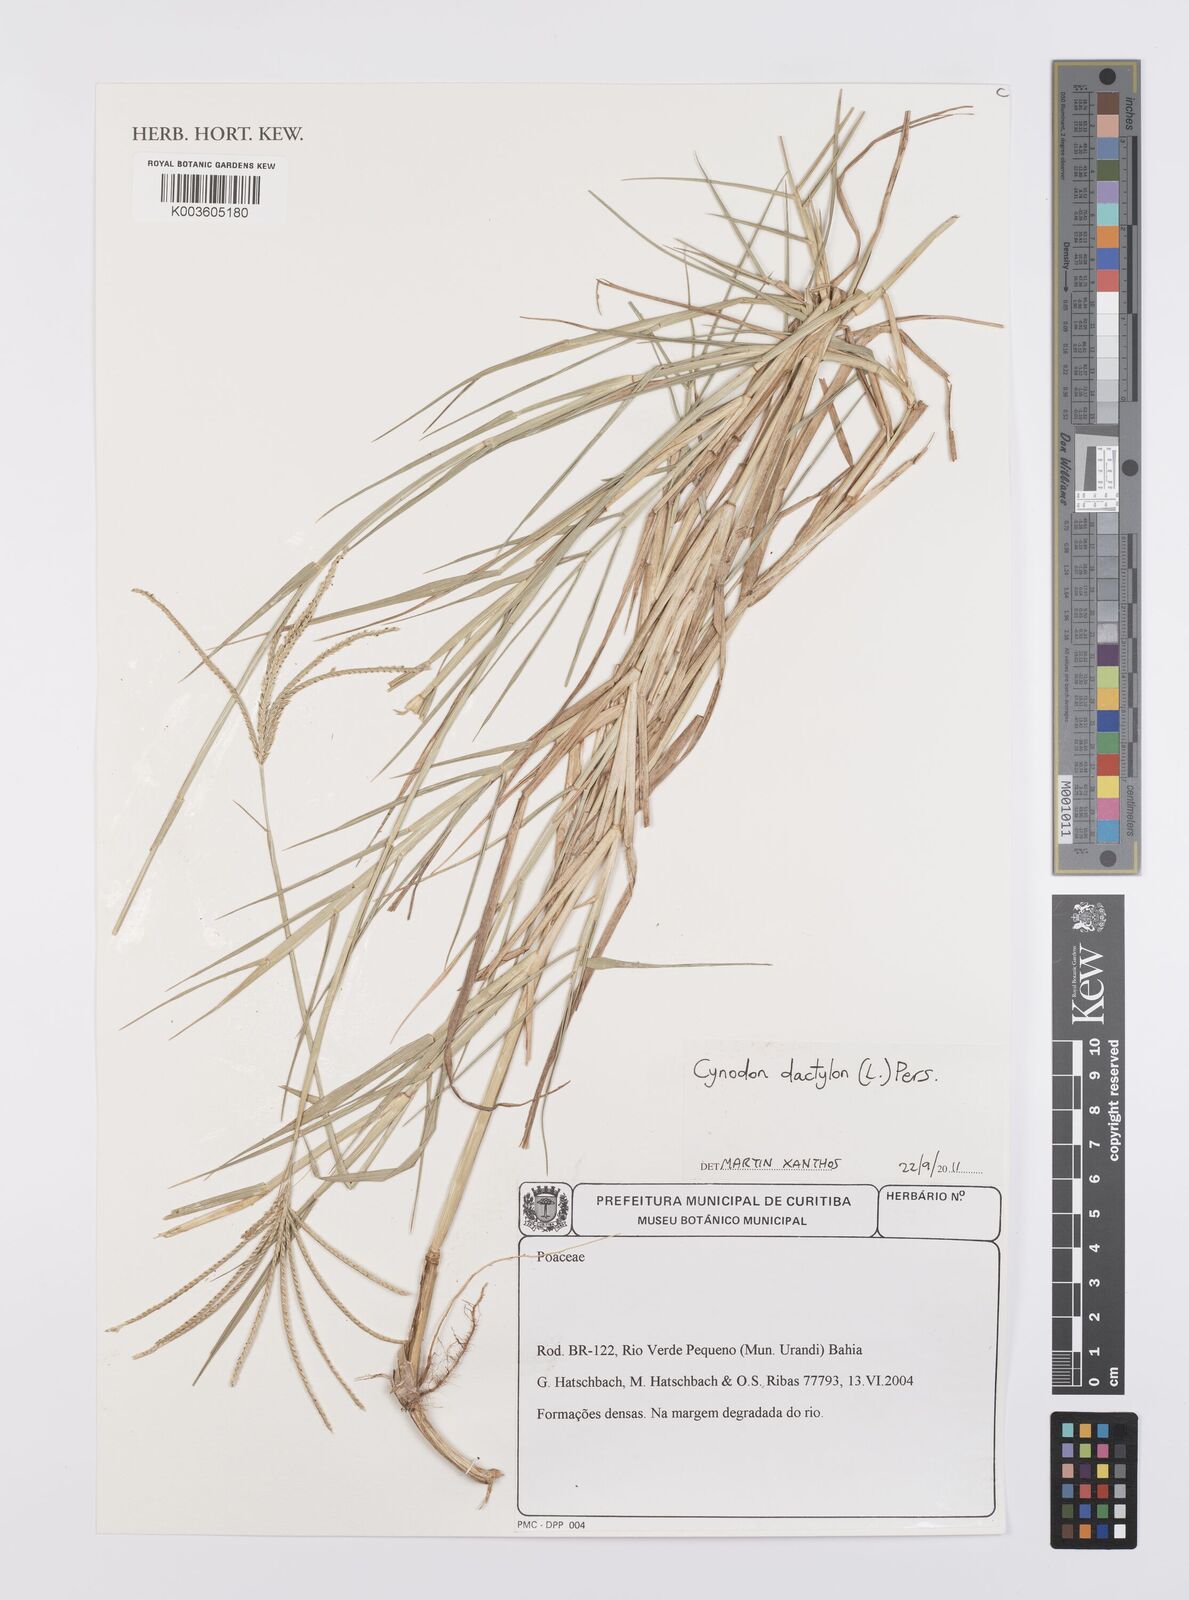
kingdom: Plantae
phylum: Tracheophyta
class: Liliopsida
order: Poales
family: Poaceae
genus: Cynodon
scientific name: Cynodon dactylon
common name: Bermuda grass
